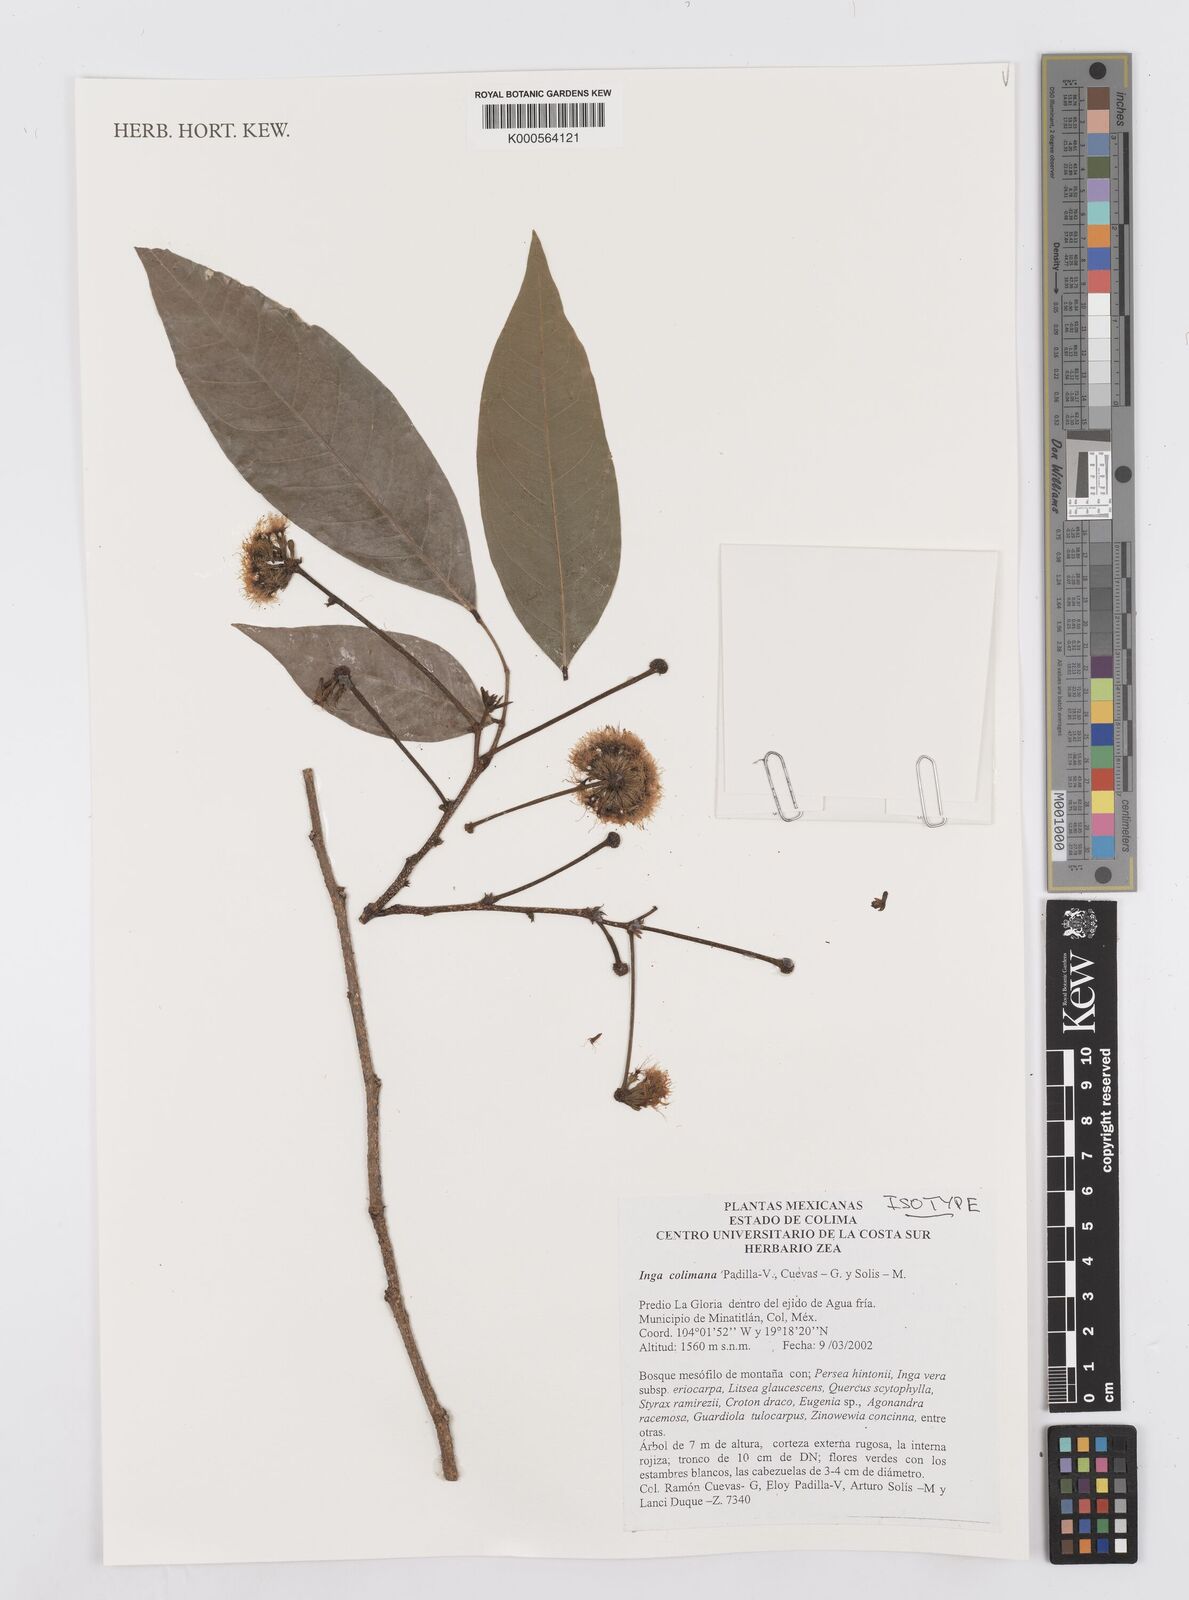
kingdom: Plantae
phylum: Tracheophyta
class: Magnoliopsida
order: Fabales
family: Fabaceae
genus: Inga
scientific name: Inga
